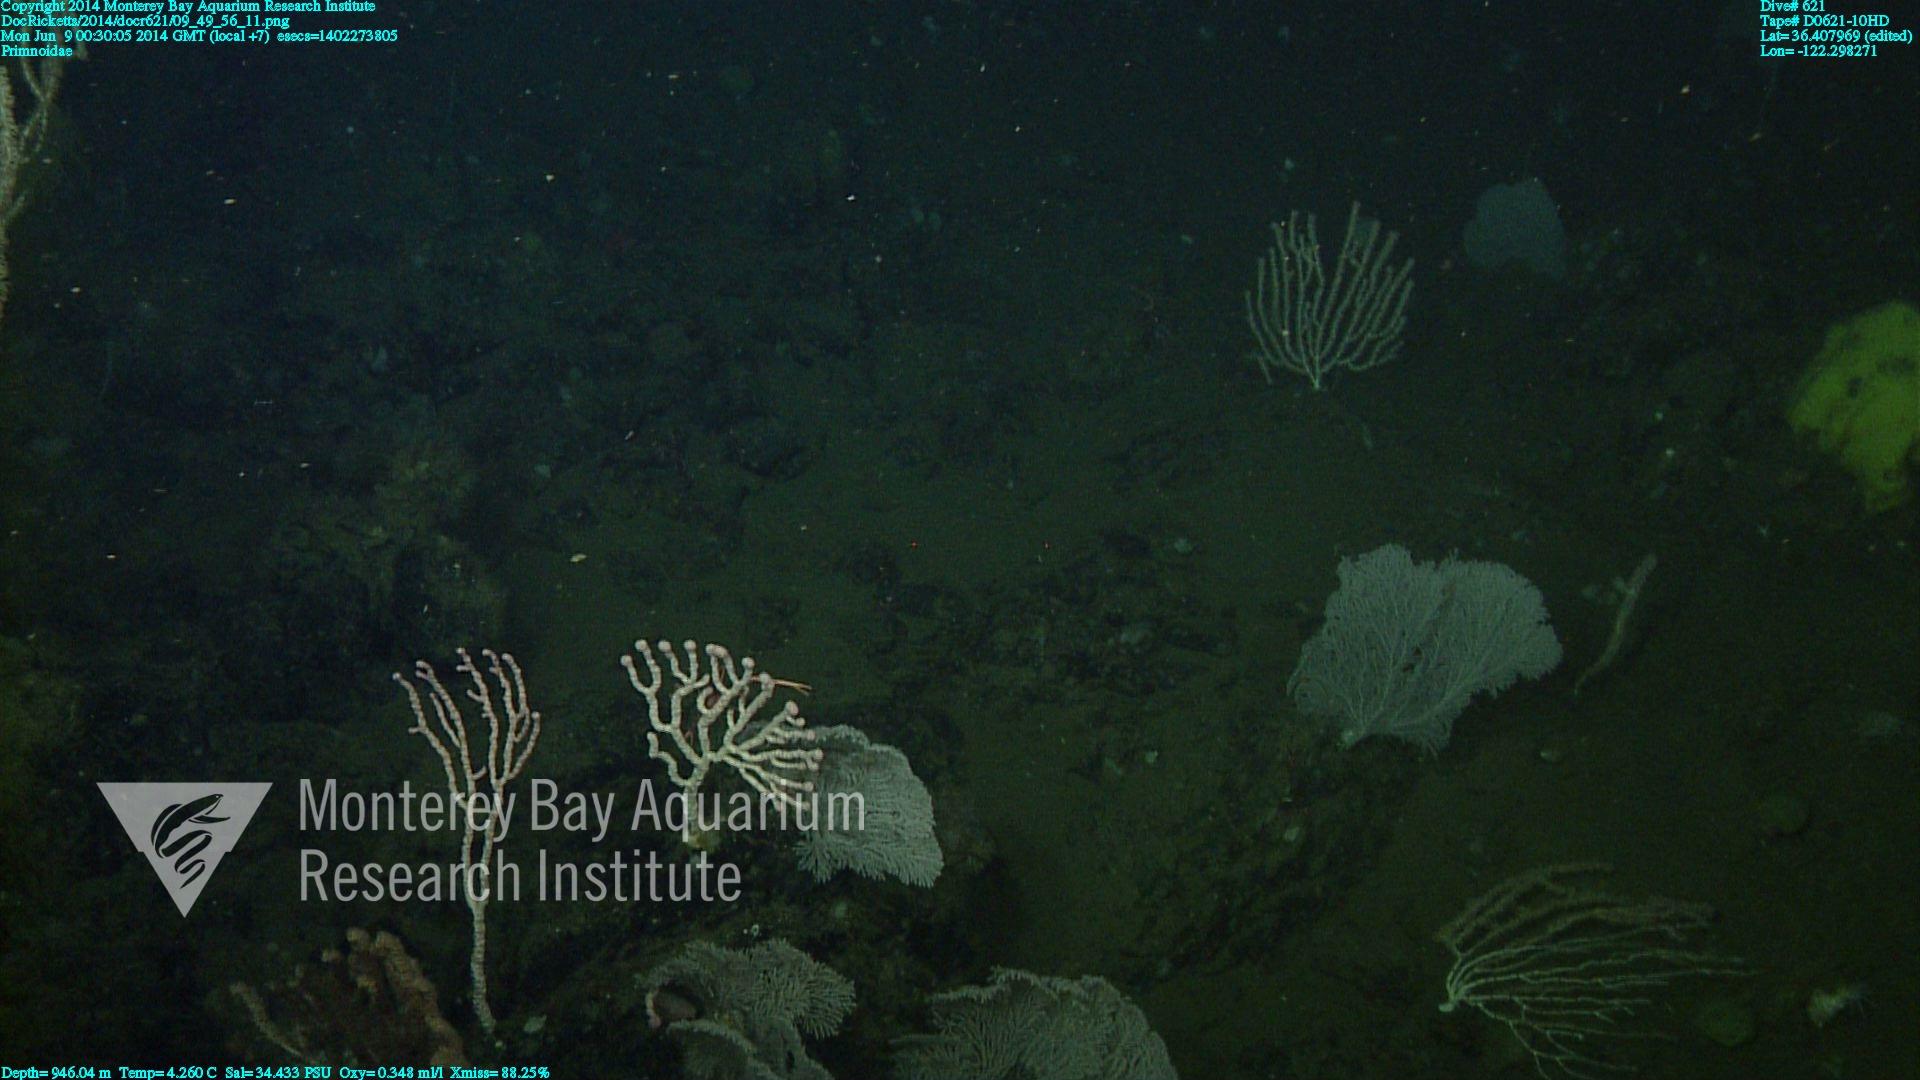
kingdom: Animalia
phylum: Cnidaria
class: Anthozoa
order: Scleralcyonacea
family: Primnoidae
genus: Parastenella
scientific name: Parastenella
